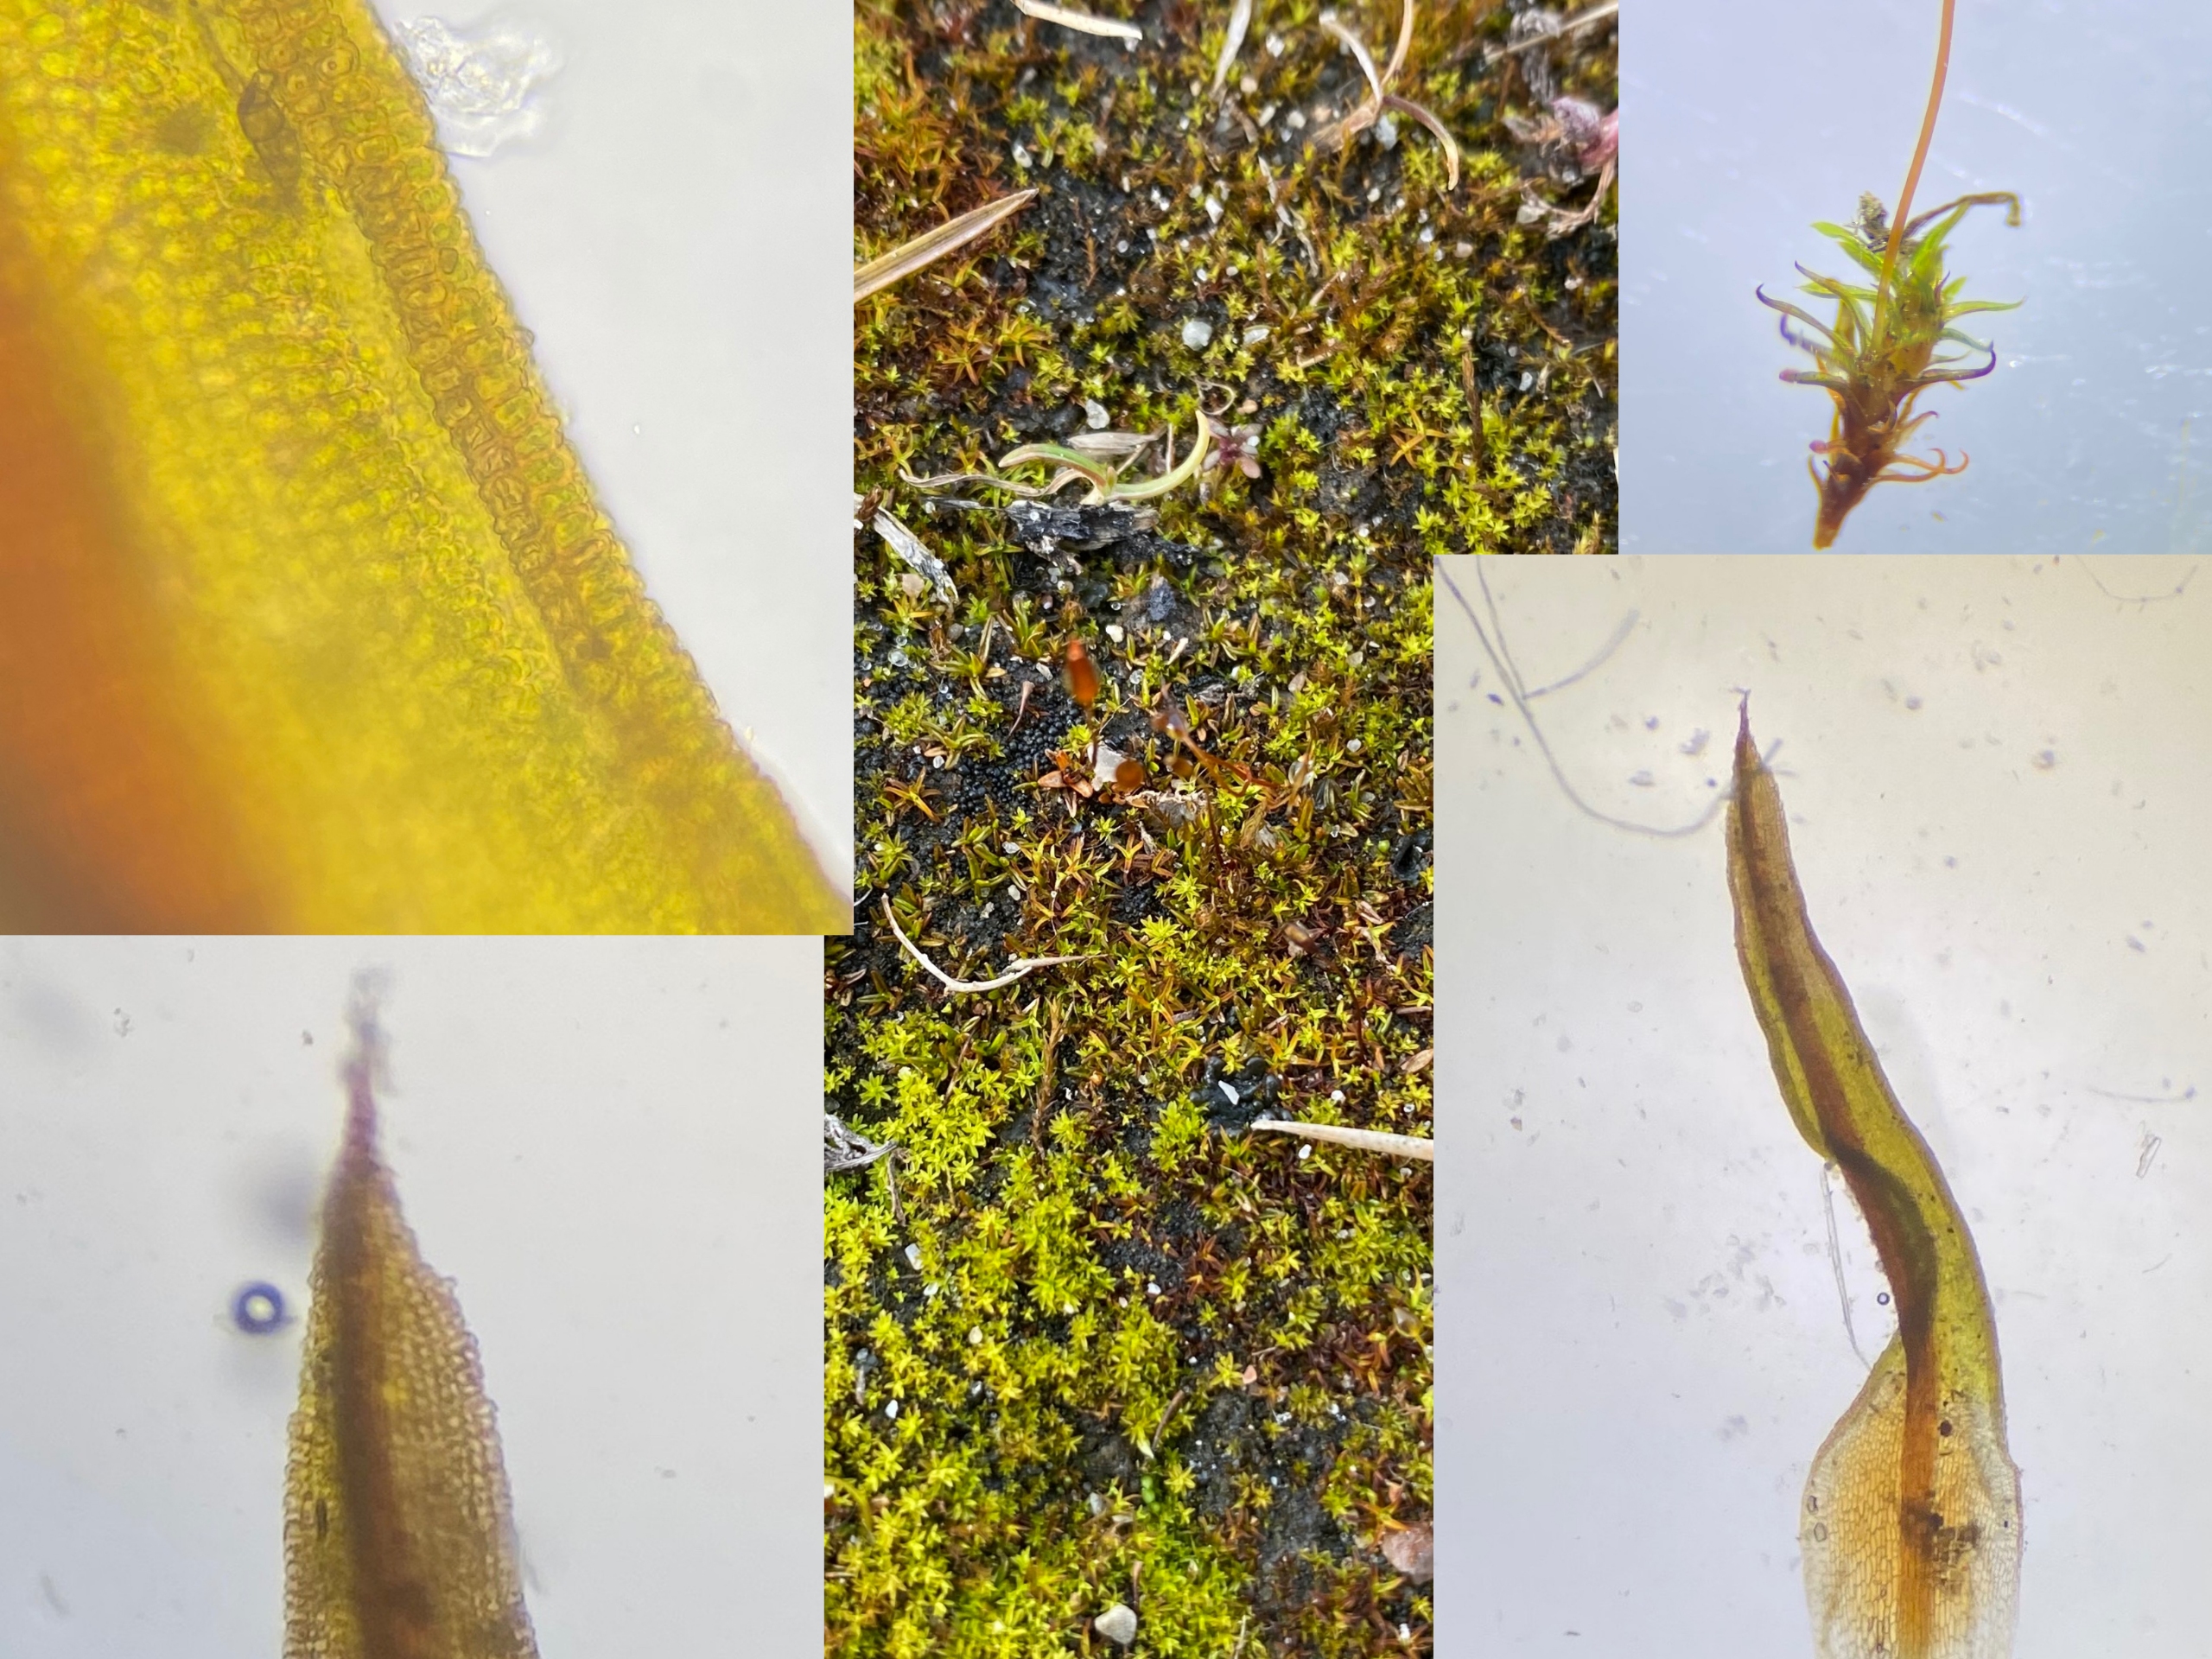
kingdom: Plantae
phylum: Bryophyta
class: Bryopsida
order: Pottiales
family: Pottiaceae
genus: Bryoerythrophyllum
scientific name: Bryoerythrophyllum recurvirostrum
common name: Rød gammelblad
